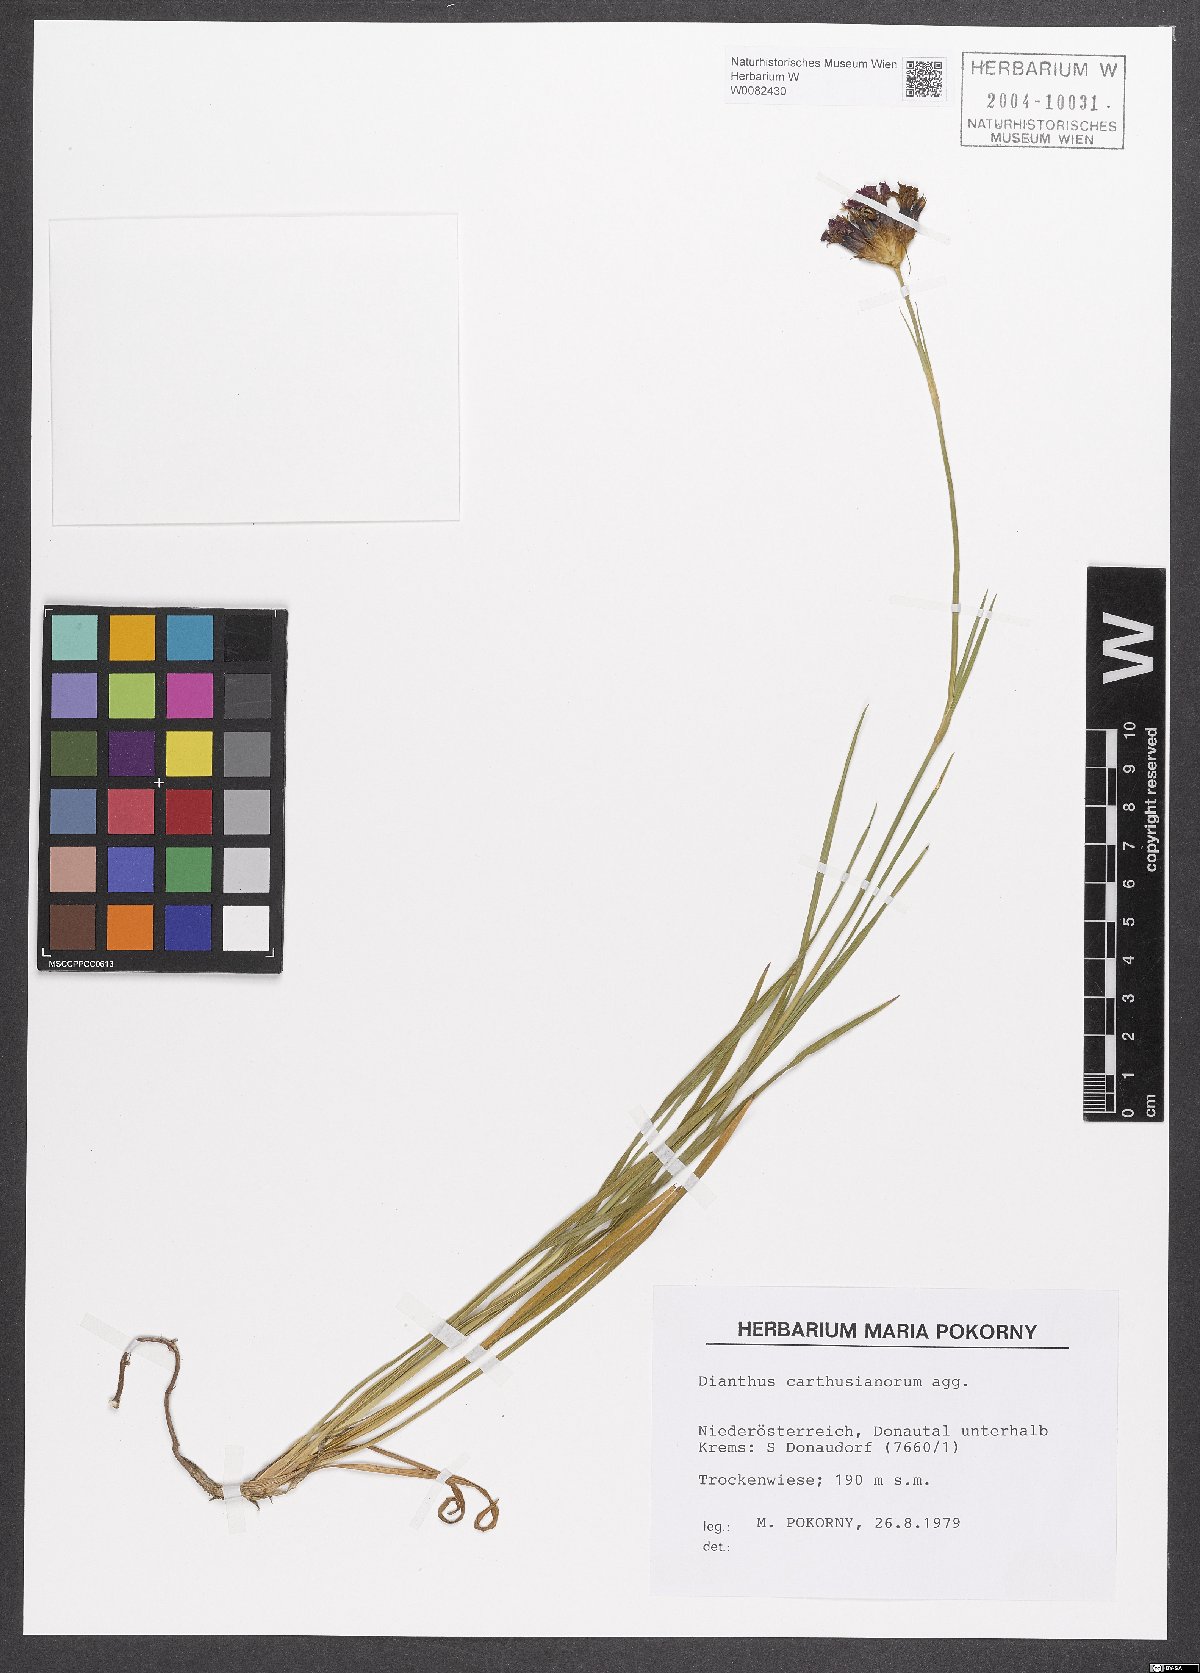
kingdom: Plantae
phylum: Tracheophyta
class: Magnoliopsida
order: Caryophyllales
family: Caryophyllaceae
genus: Dianthus
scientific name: Dianthus carthusianorum
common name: Carthusian pink
